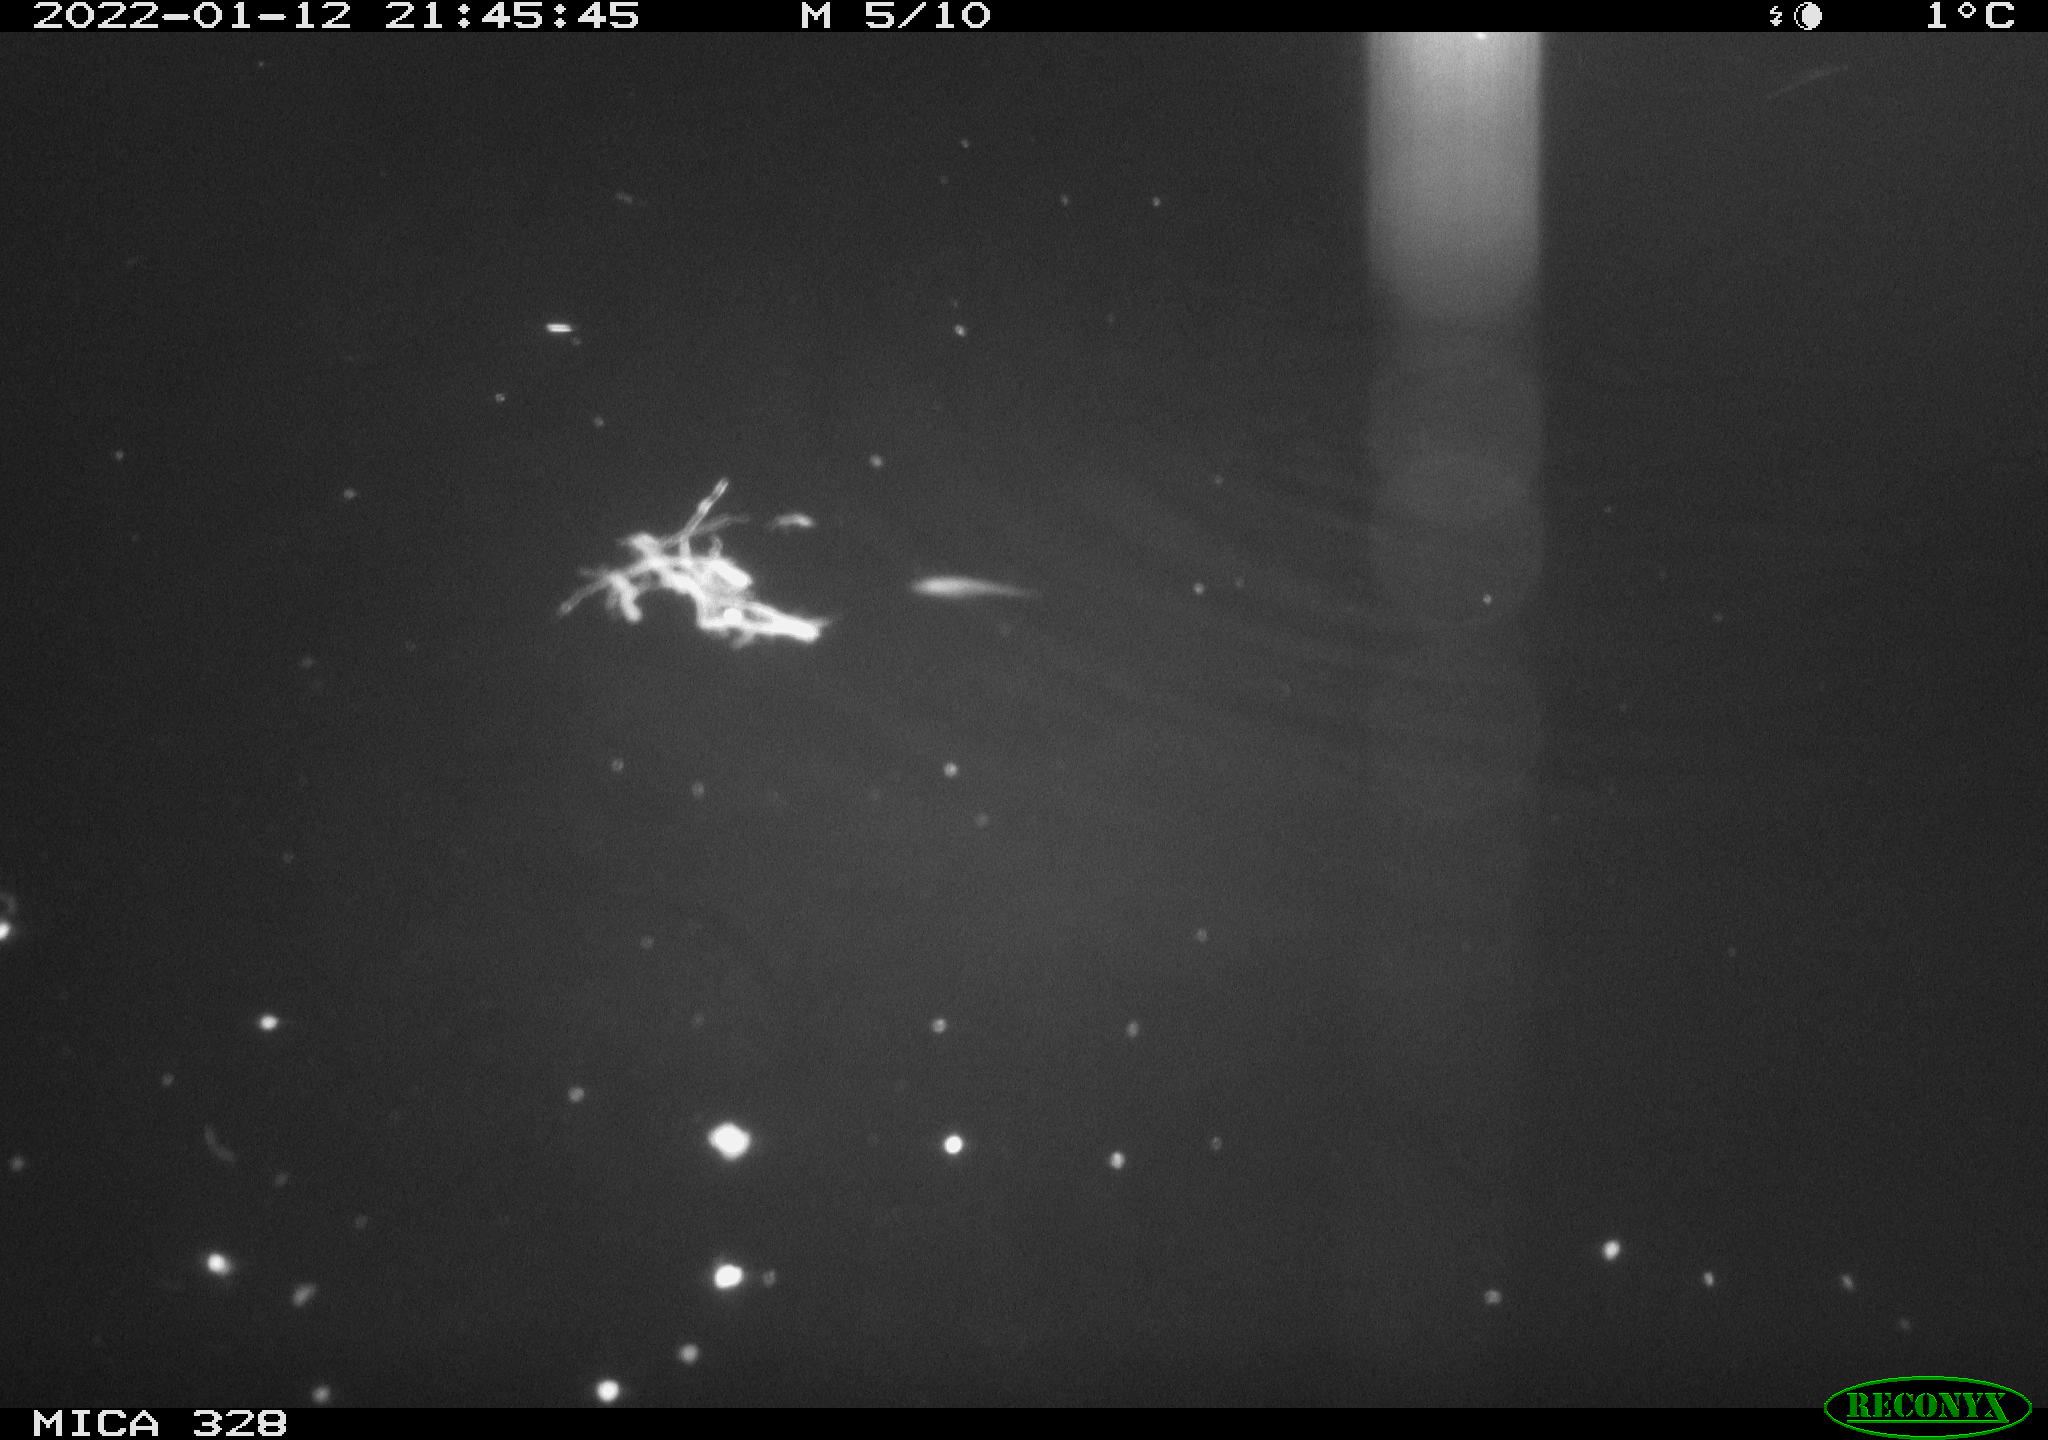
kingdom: Animalia
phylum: Chordata
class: Mammalia
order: Rodentia
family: Cricetidae
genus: Ondatra
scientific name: Ondatra zibethicus
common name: Muskrat
